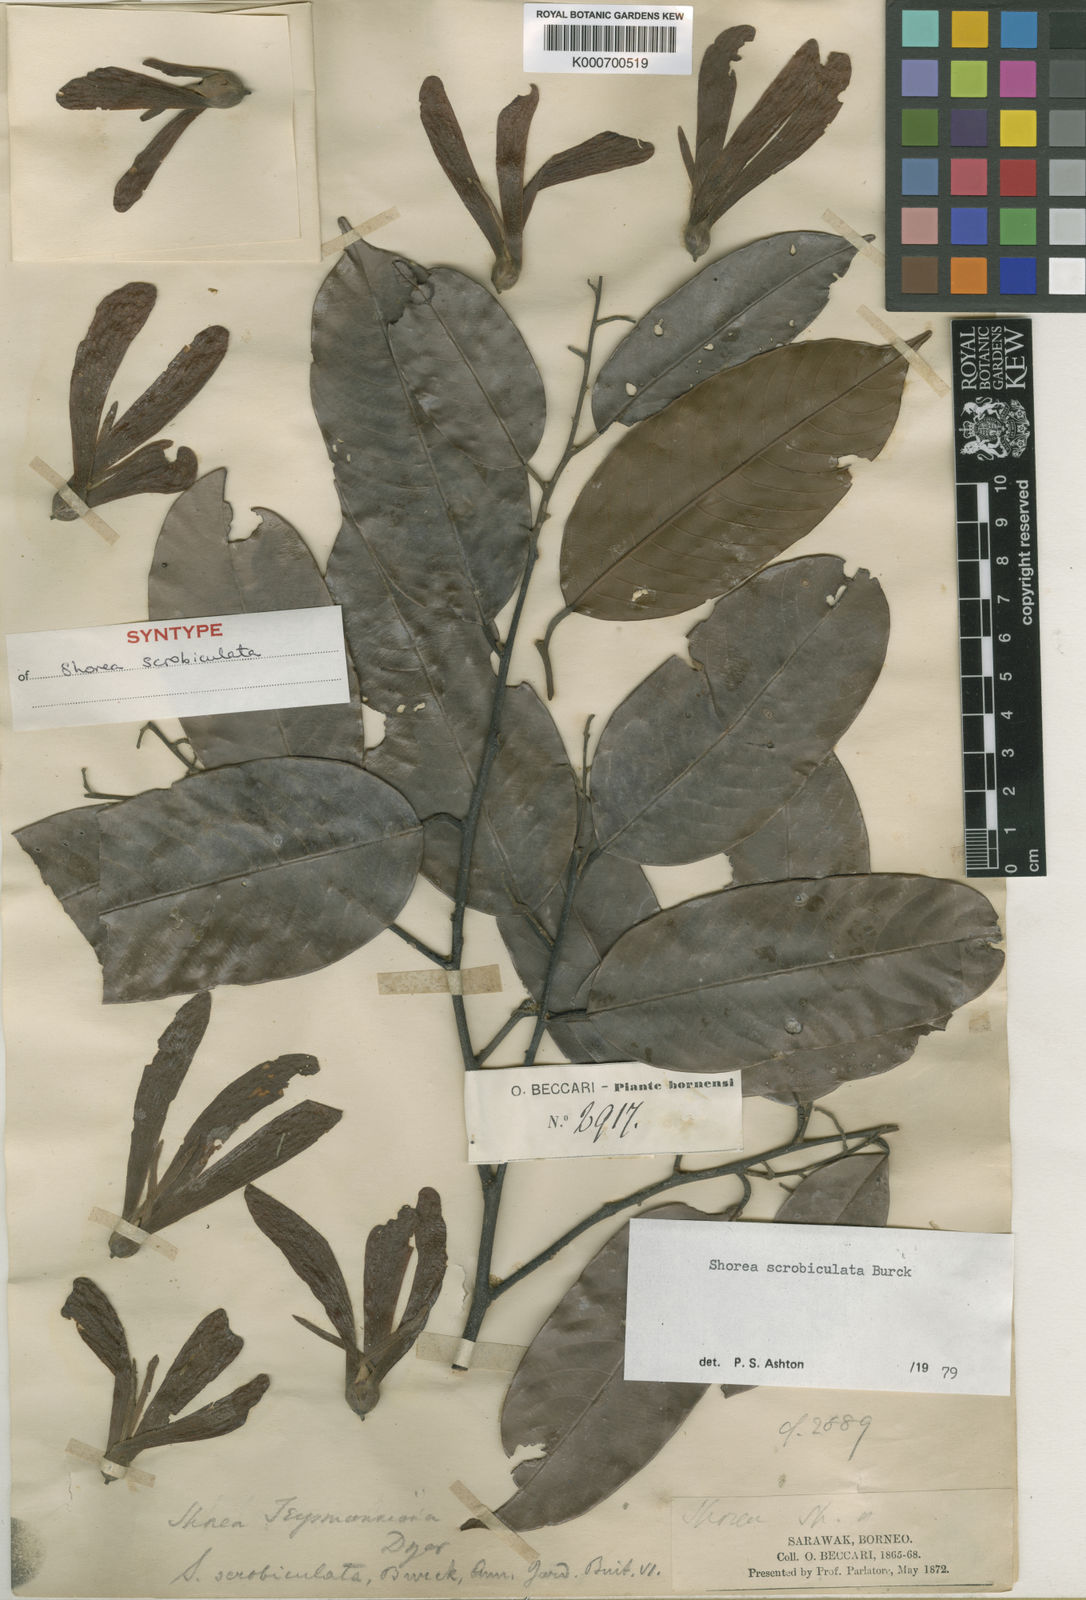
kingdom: Plantae
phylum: Tracheophyta
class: Magnoliopsida
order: Malvales
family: Dipterocarpaceae
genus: Shorea
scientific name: Shorea scrobiculata
